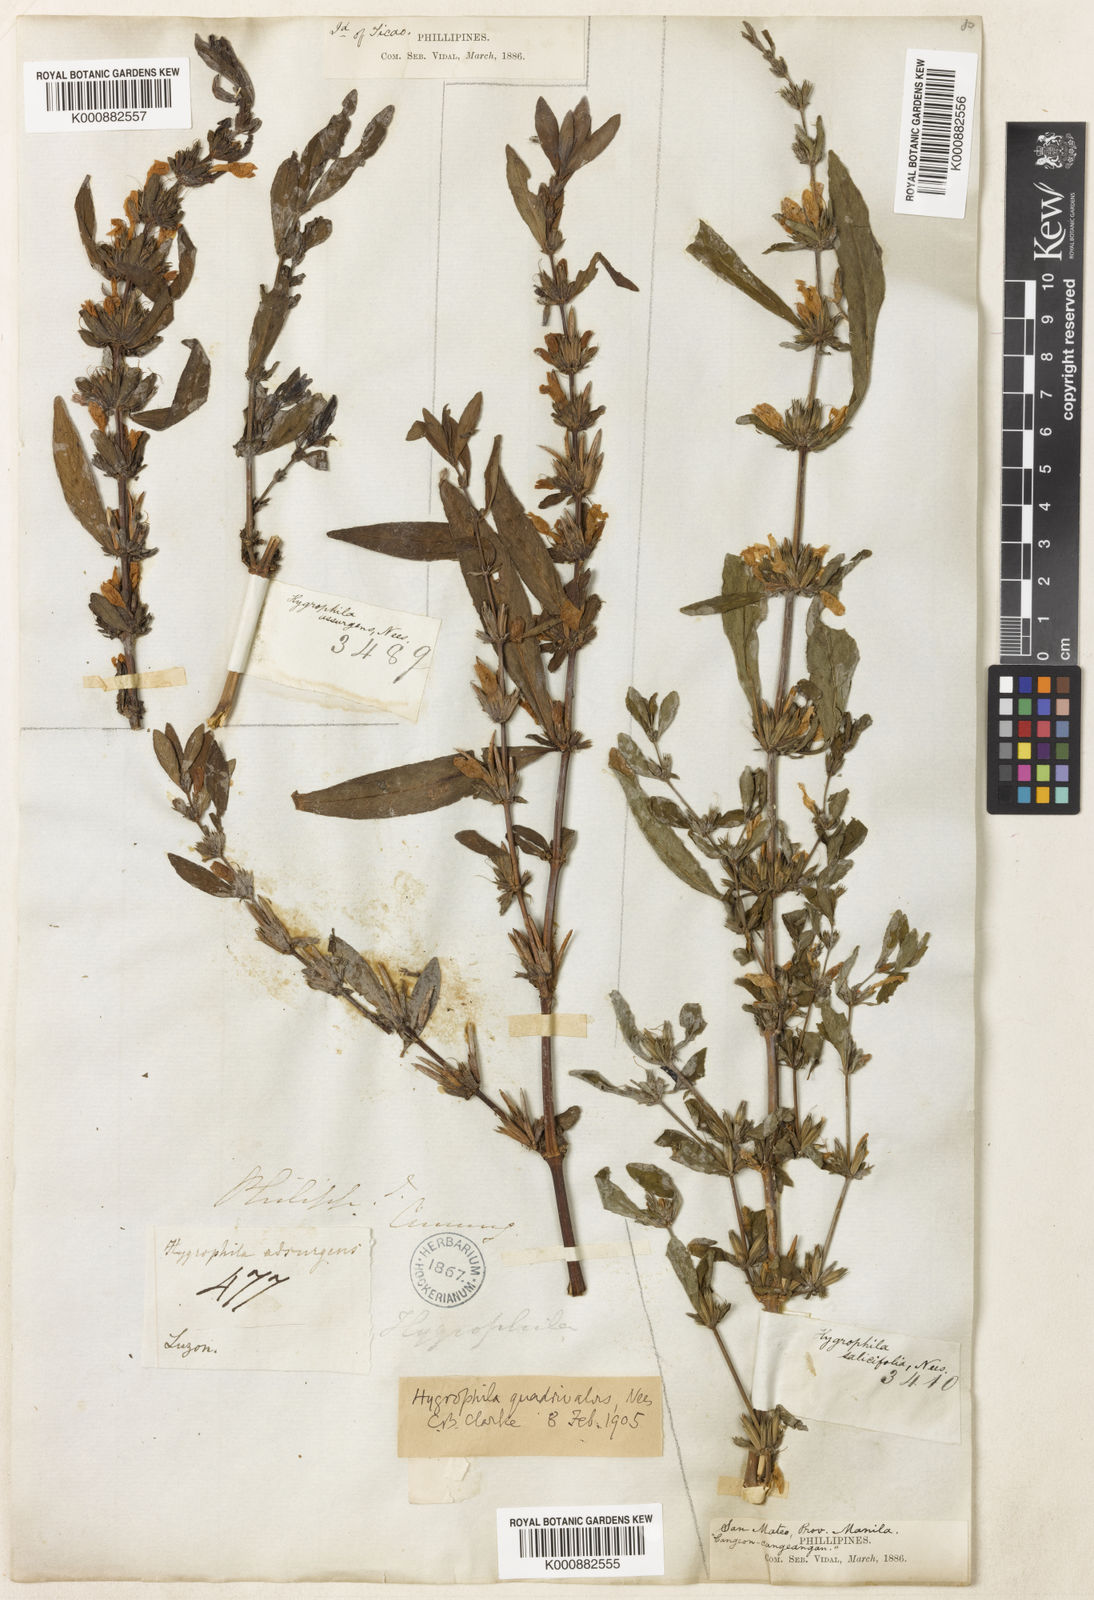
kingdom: Plantae
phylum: Tracheophyta
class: Magnoliopsida
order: Lamiales
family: Acanthaceae
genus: Hygrophila
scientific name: Hygrophila ringens
